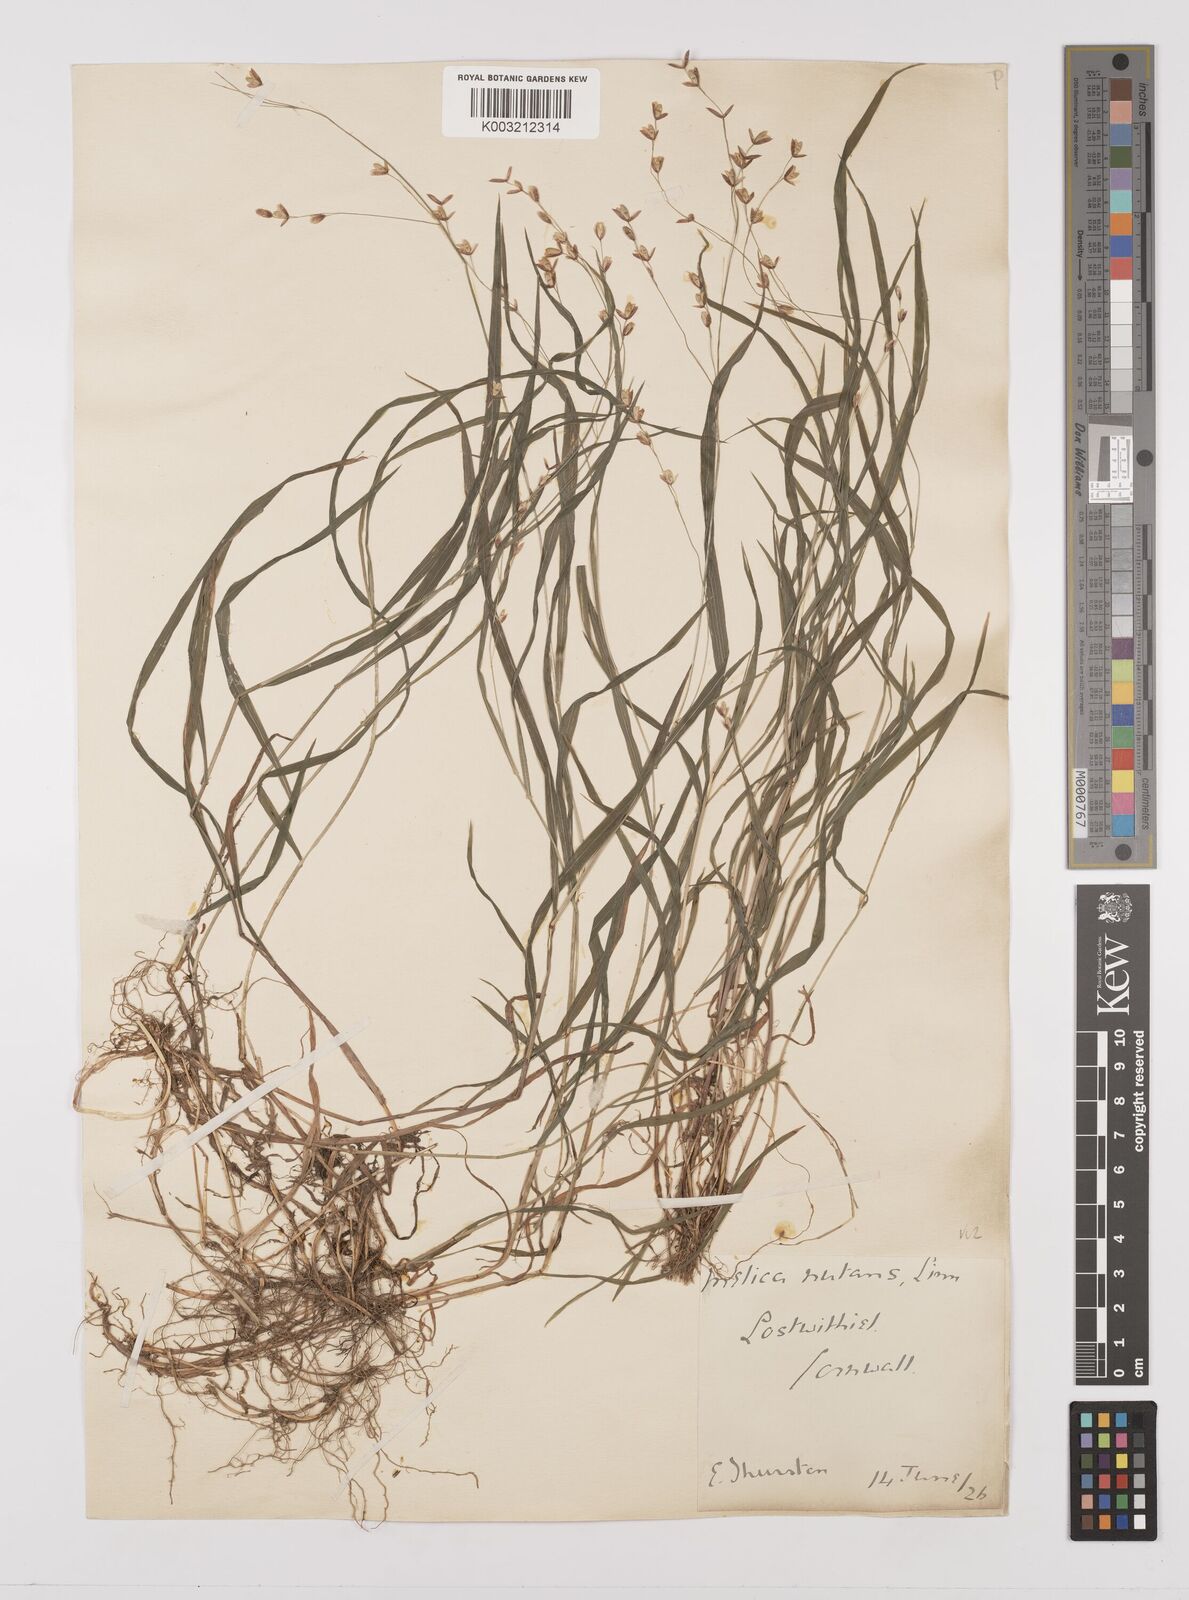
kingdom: Plantae
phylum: Tracheophyta
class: Liliopsida
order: Poales
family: Poaceae
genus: Melica
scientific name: Melica uniflora
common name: Wood melick
